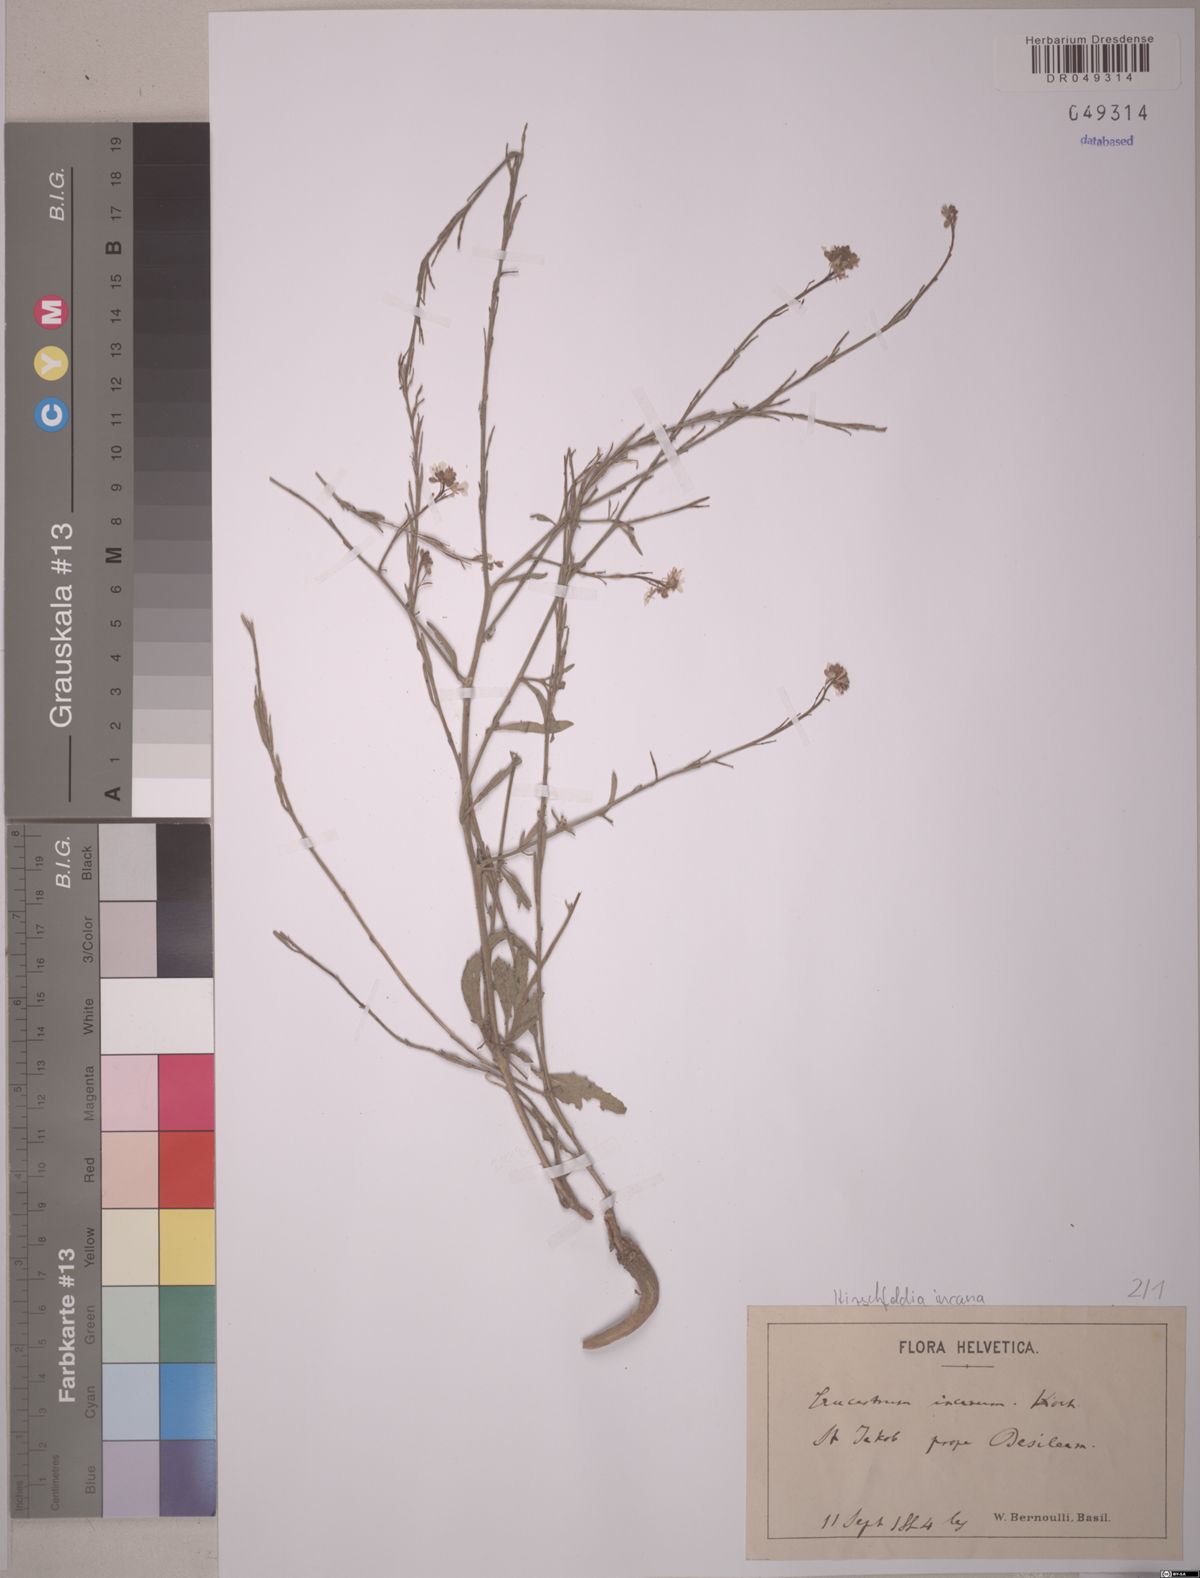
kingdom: Plantae
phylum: Tracheophyta
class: Magnoliopsida
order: Brassicales
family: Brassicaceae
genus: Hirschfeldia
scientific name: Hirschfeldia incana
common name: Hoary mustard
